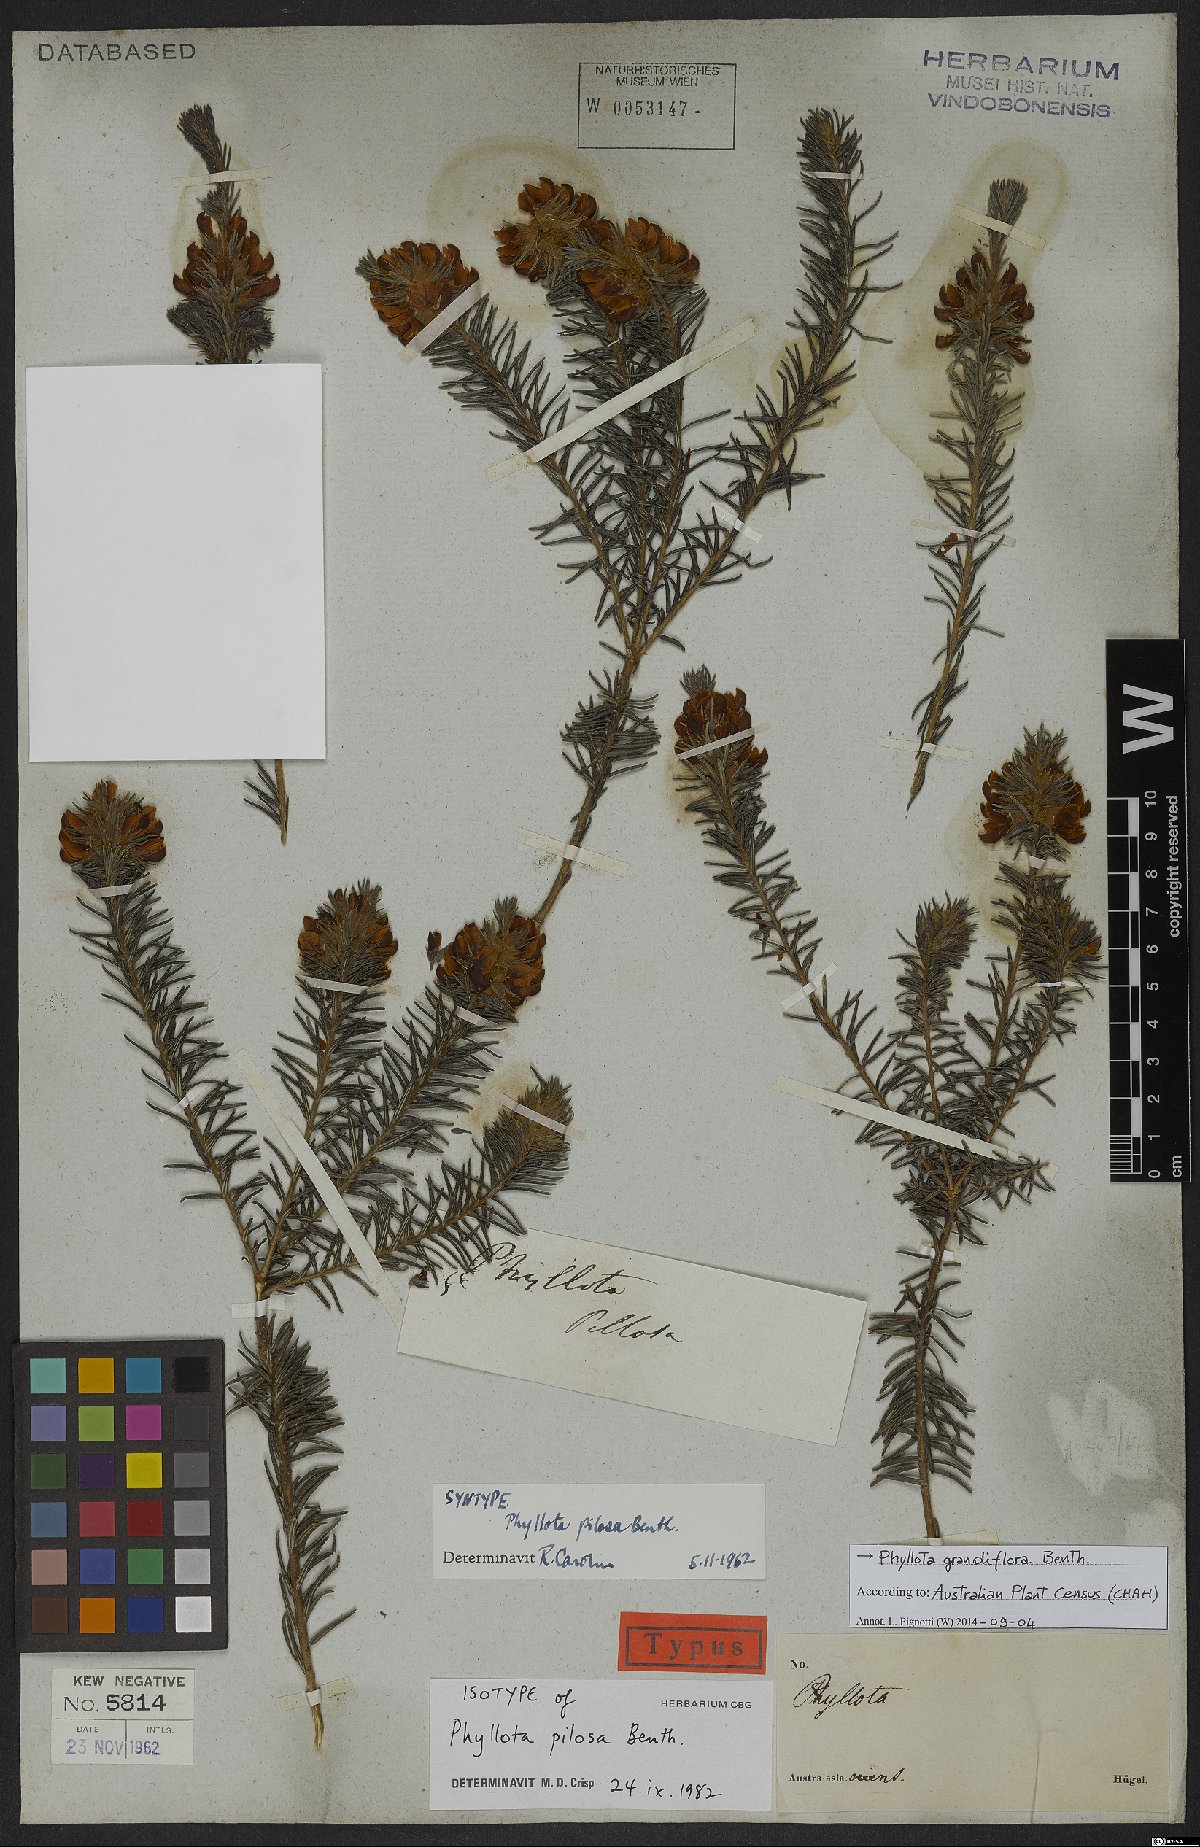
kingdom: Plantae
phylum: Tracheophyta
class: Magnoliopsida
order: Fabales
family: Fabaceae
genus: Phyllota
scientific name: Phyllota grandiflora
